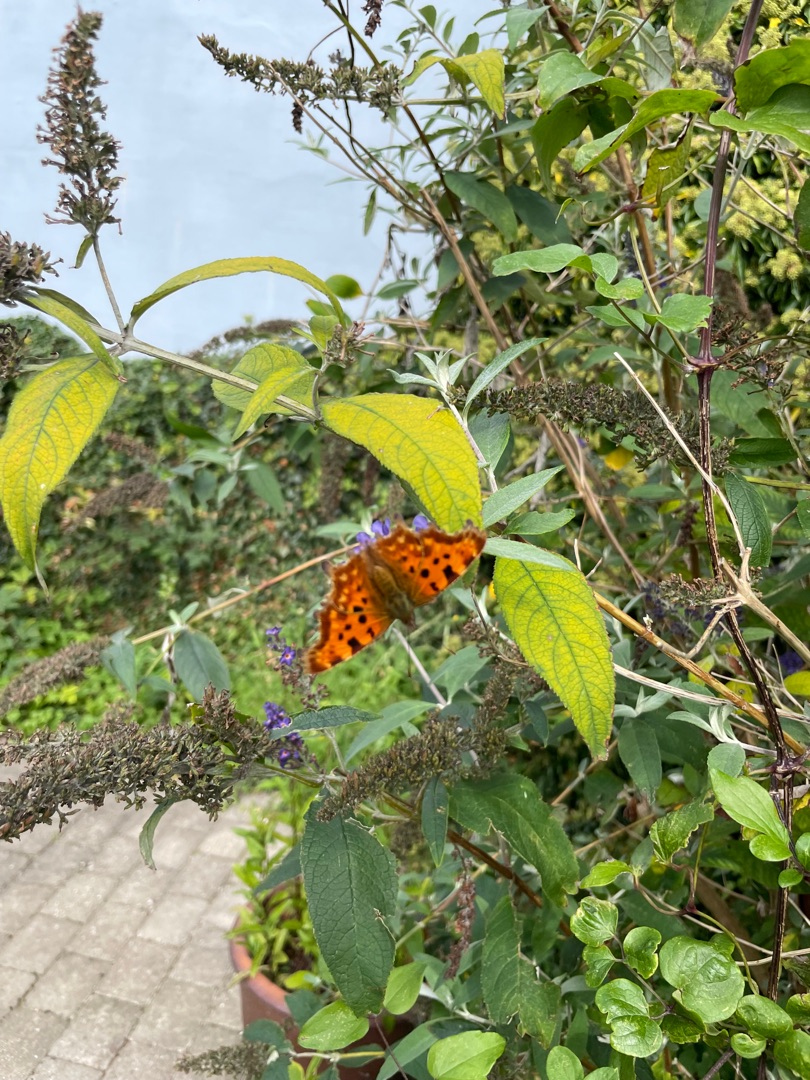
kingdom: Animalia
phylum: Arthropoda
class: Insecta
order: Lepidoptera
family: Nymphalidae
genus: Polygonia
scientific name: Polygonia c-album
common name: Det hvide C
